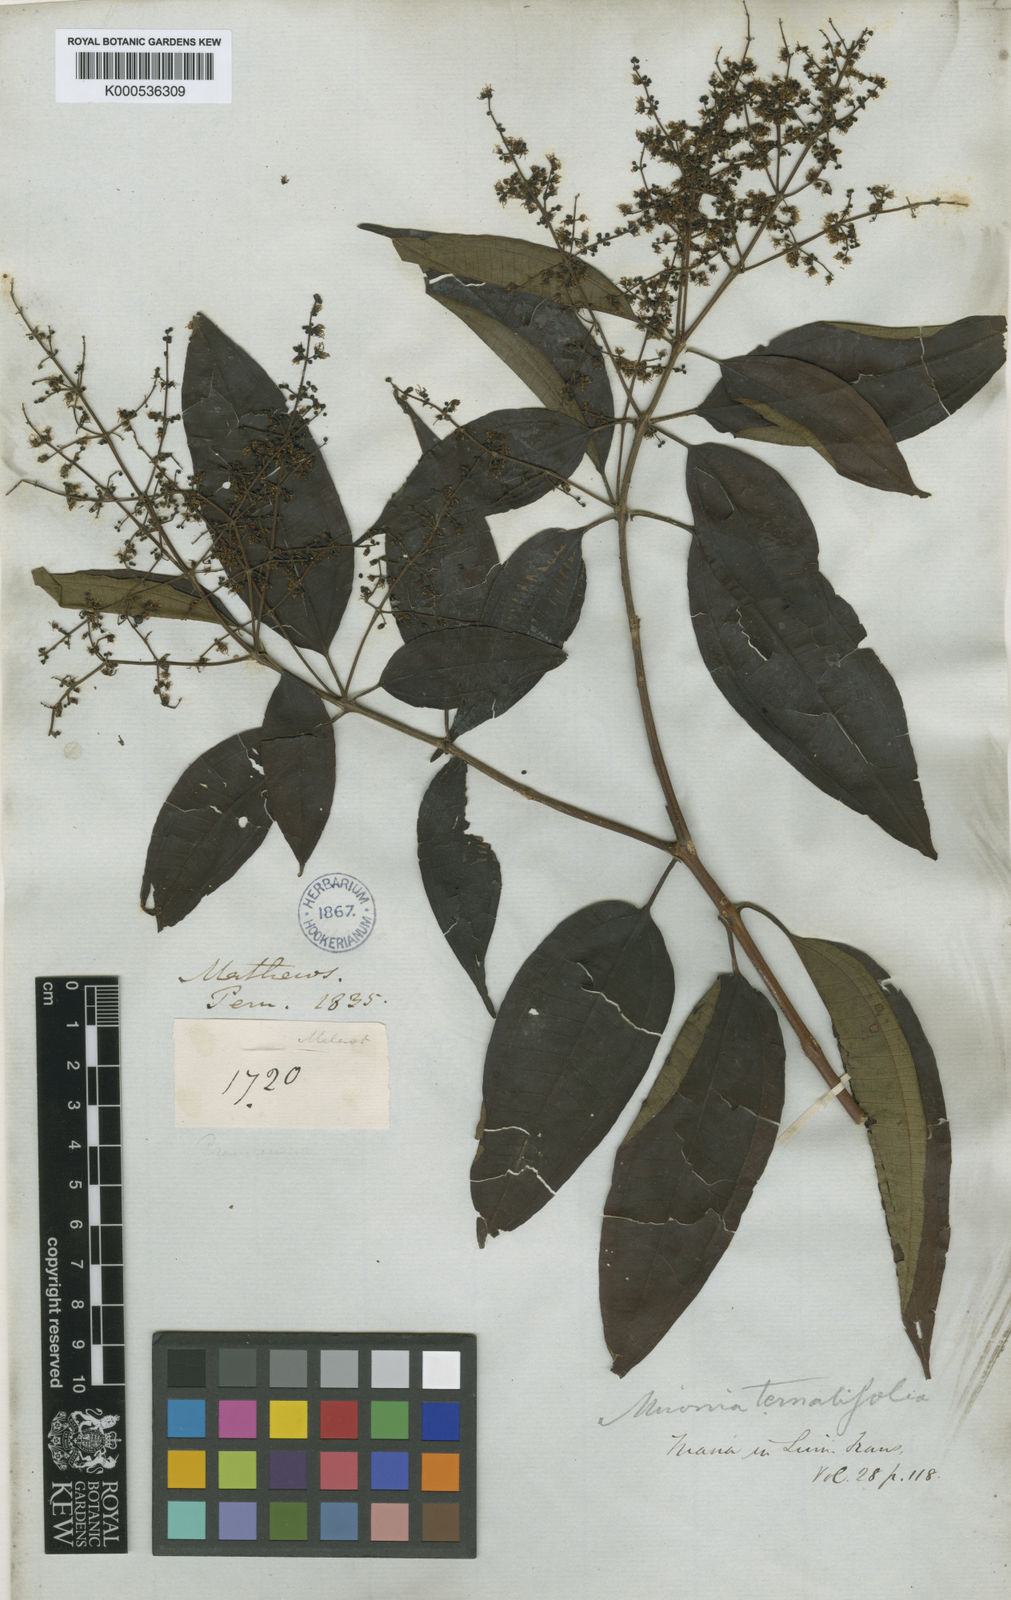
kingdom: Plantae
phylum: Tracheophyta
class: Magnoliopsida
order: Myrtales
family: Melastomataceae
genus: Miconia
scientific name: Miconia ternatifolia
